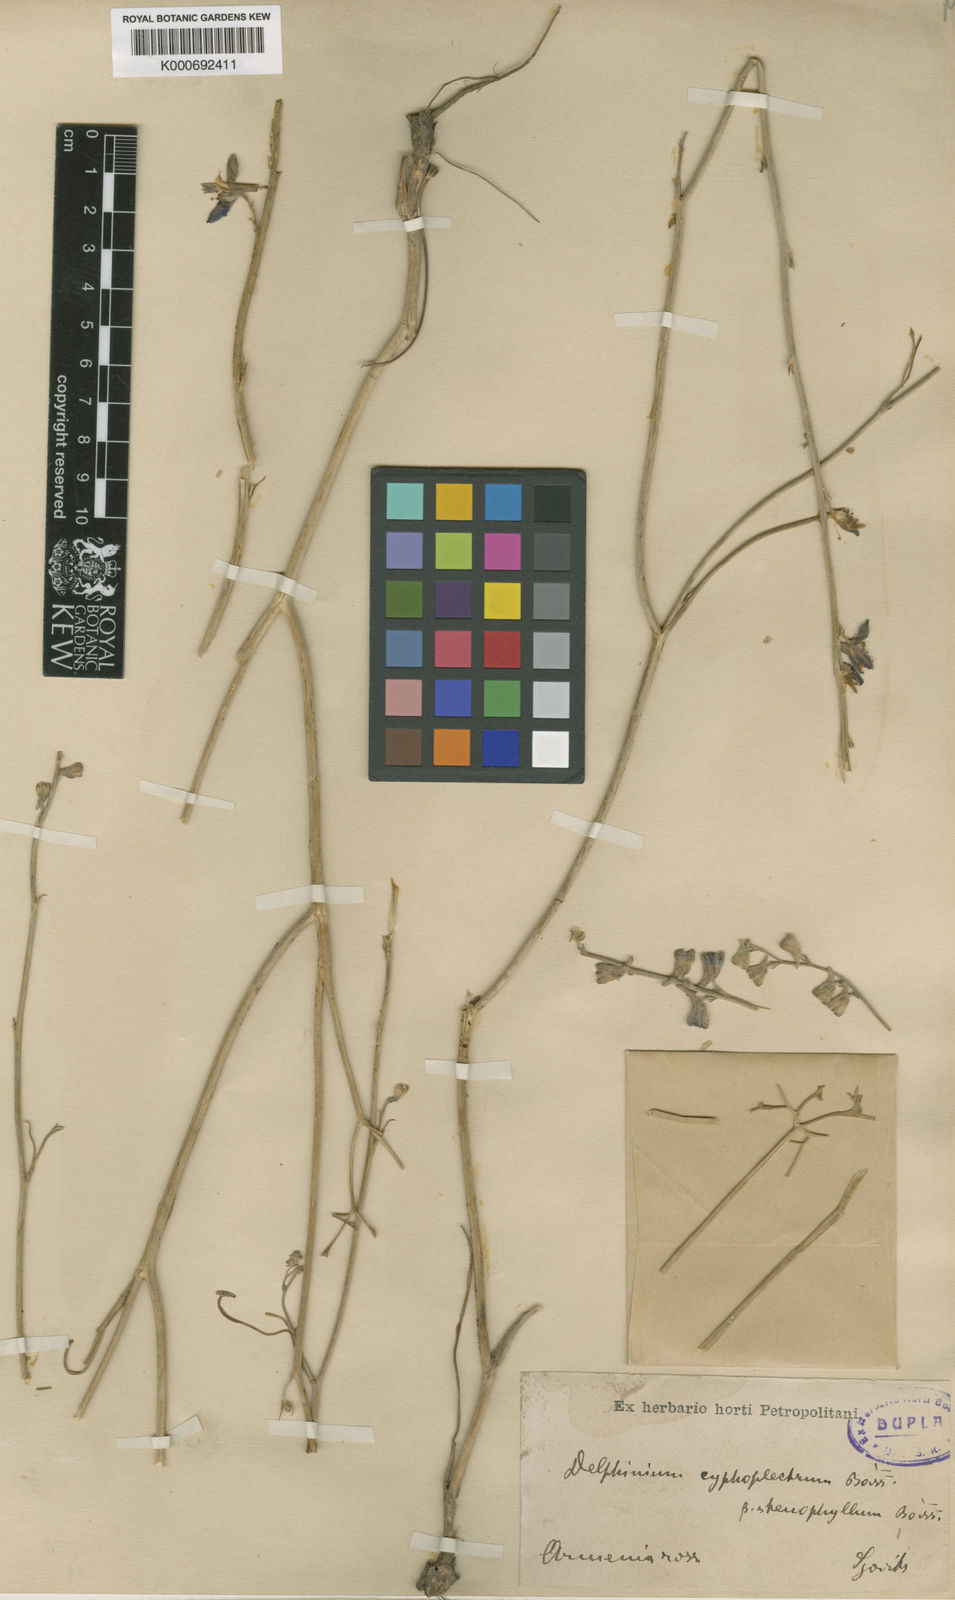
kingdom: Plantae
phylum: Tracheophyta
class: Magnoliopsida
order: Ranunculales
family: Ranunculaceae
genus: Delphinium
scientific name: Delphinium cyphoplectrum
